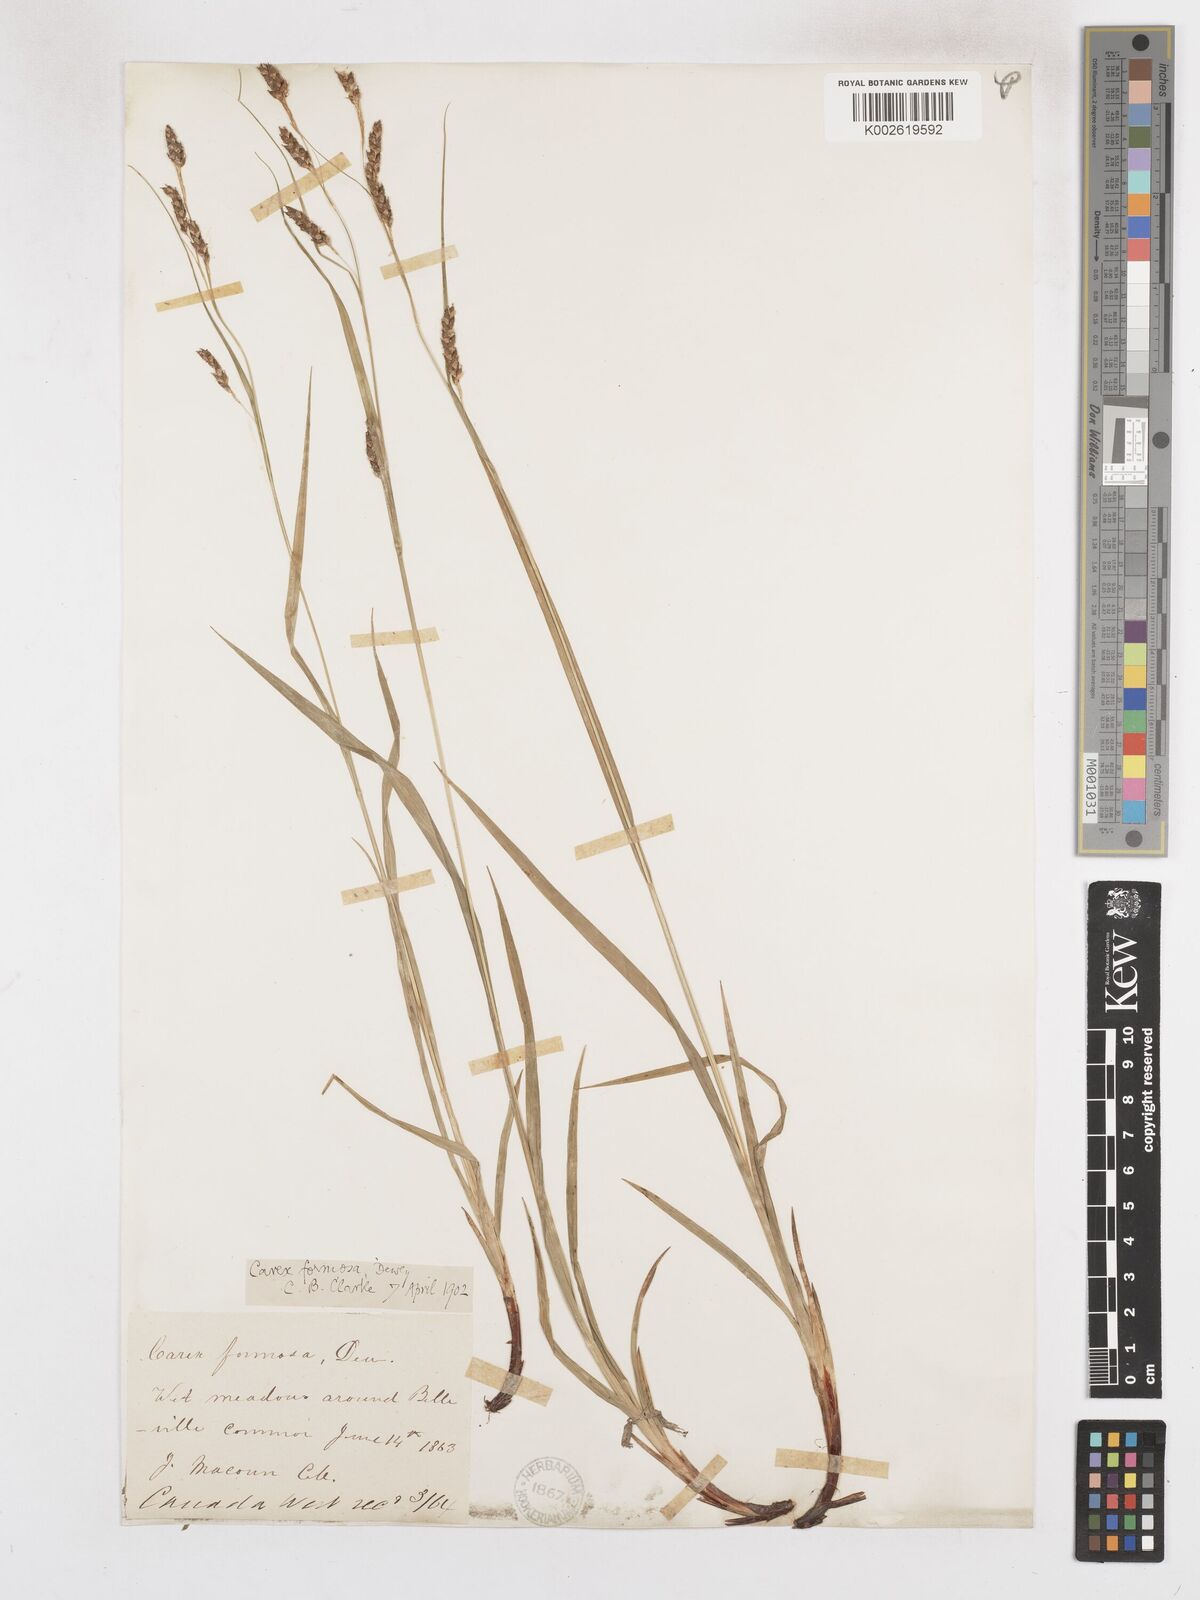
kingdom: Plantae
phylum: Tracheophyta
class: Liliopsida
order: Poales
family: Cyperaceae
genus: Carex
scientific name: Carex formosa
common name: Awnless graceful sedge
